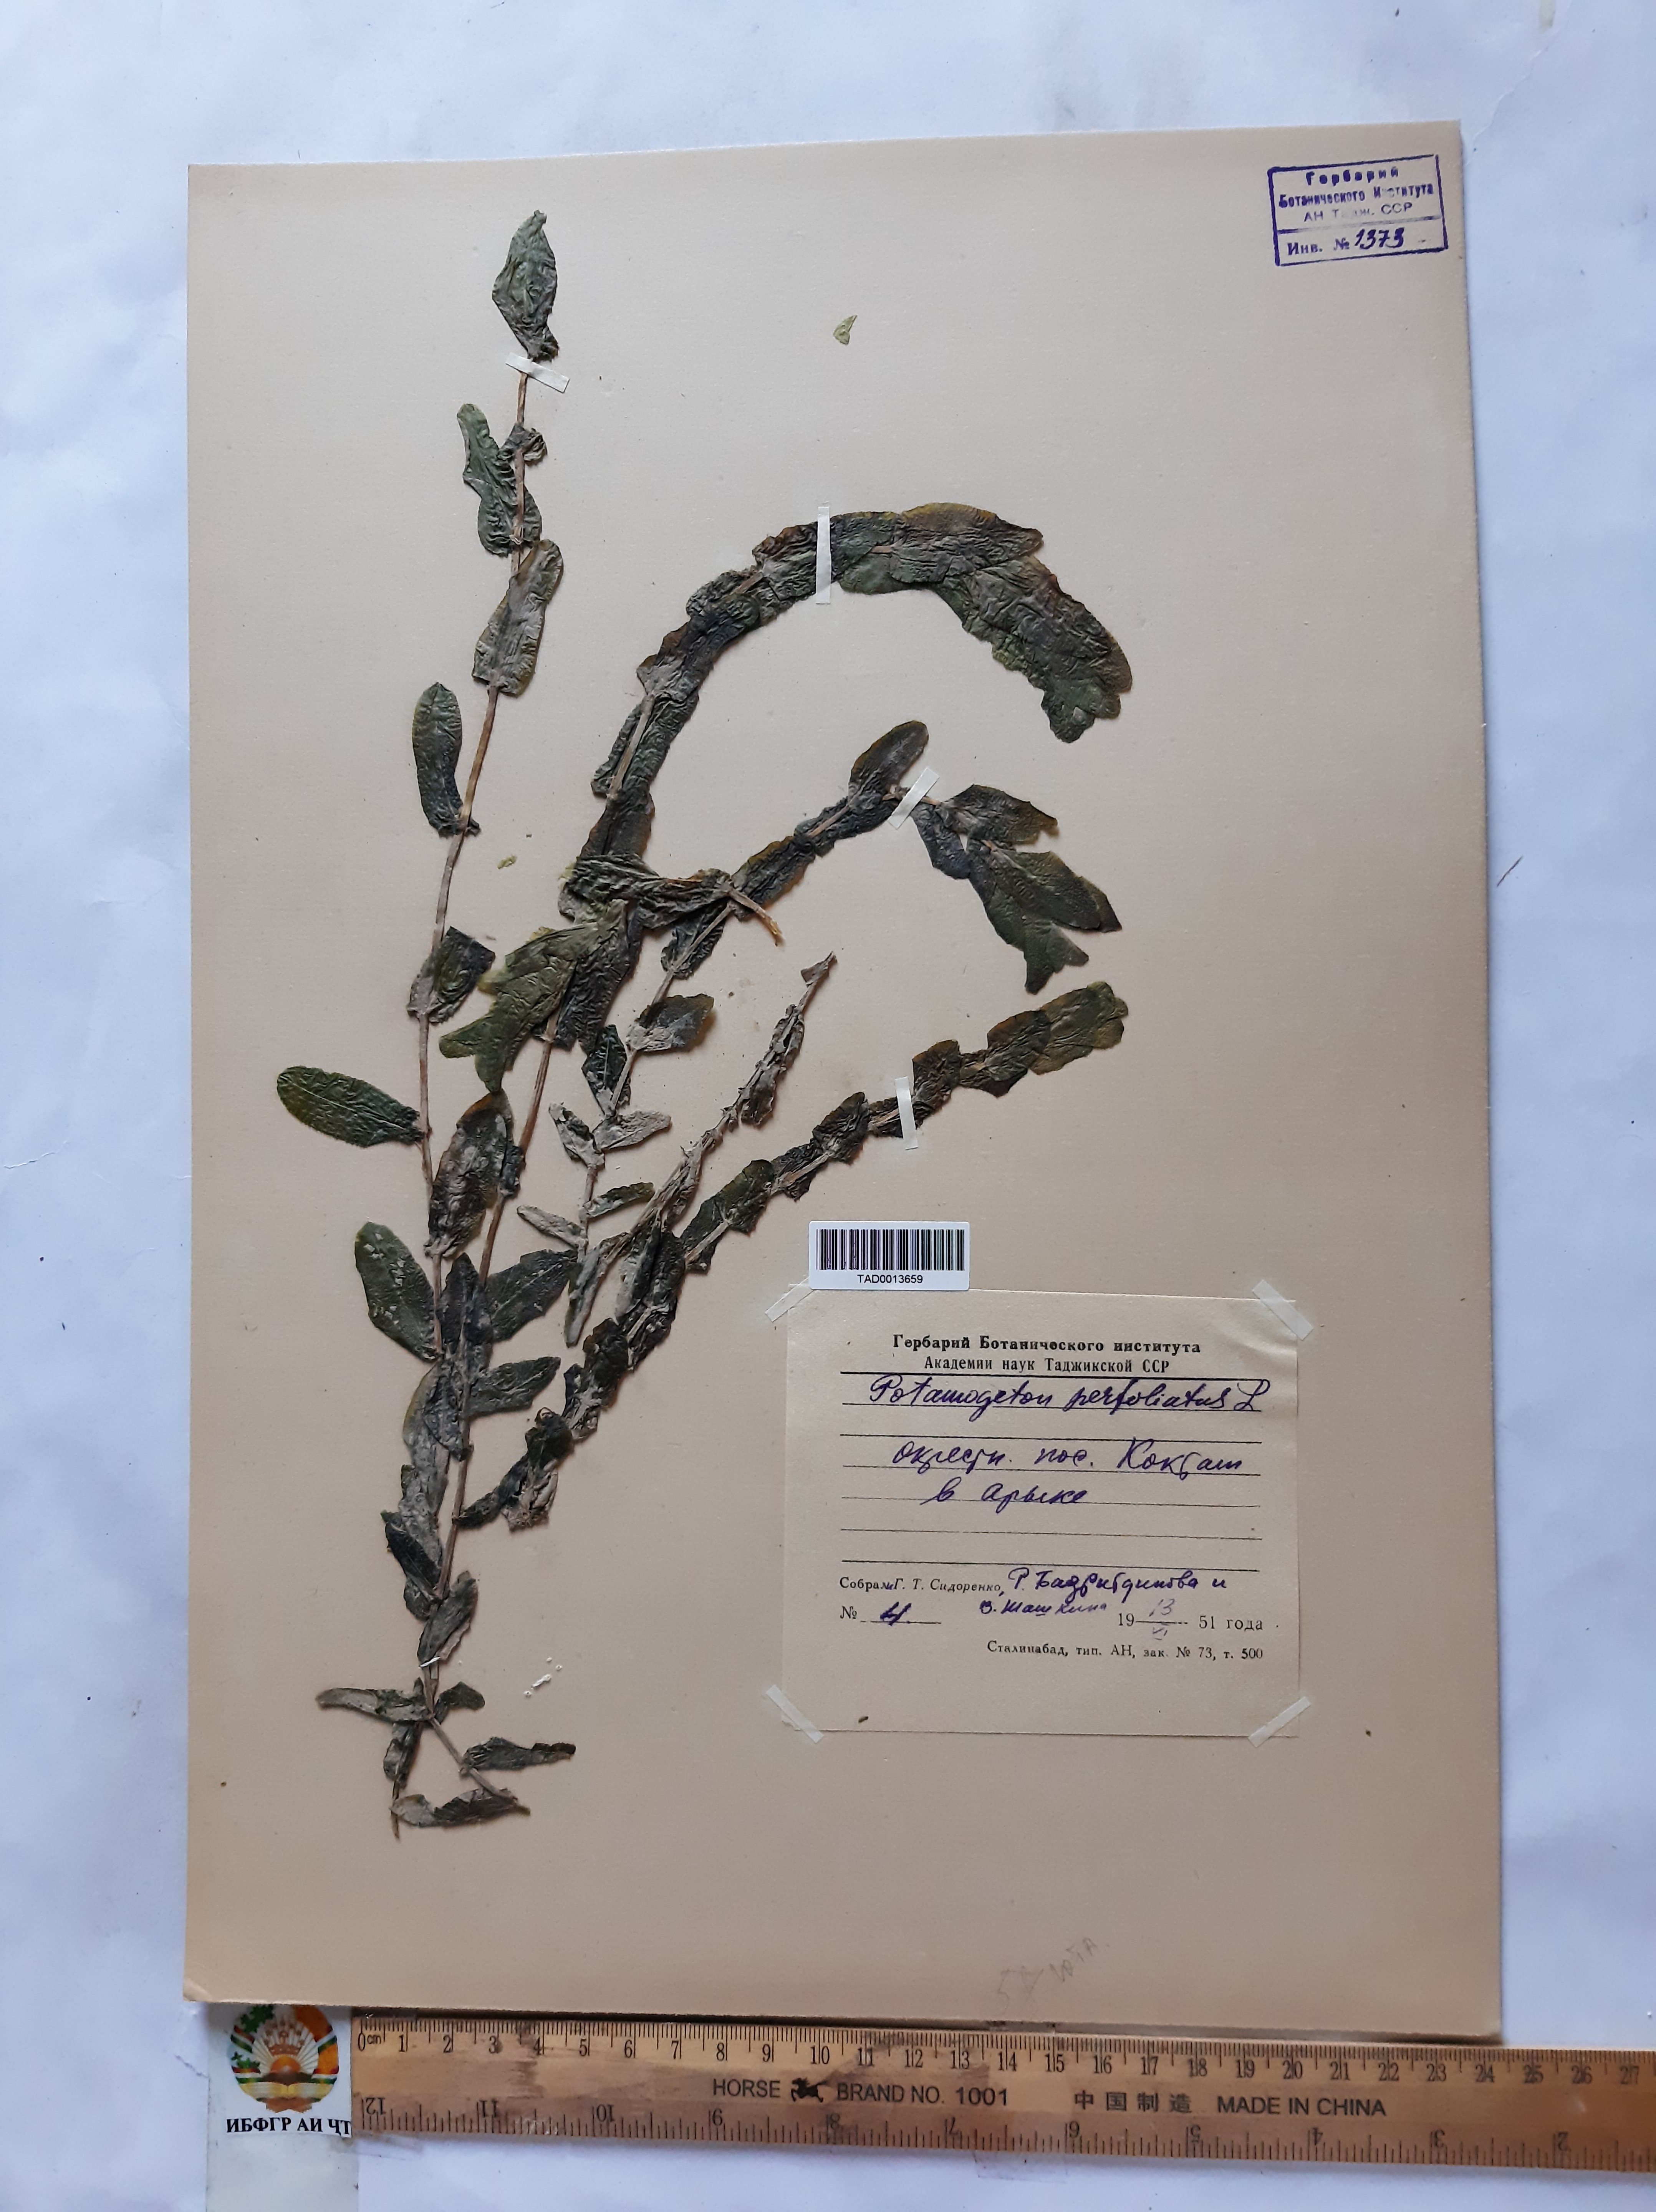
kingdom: Plantae
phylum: Tracheophyta
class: Liliopsida
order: Alismatales
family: Potamogetonaceae
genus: Potamogeton
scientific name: Potamogeton perfoliatus
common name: Perfoliate pondweed
